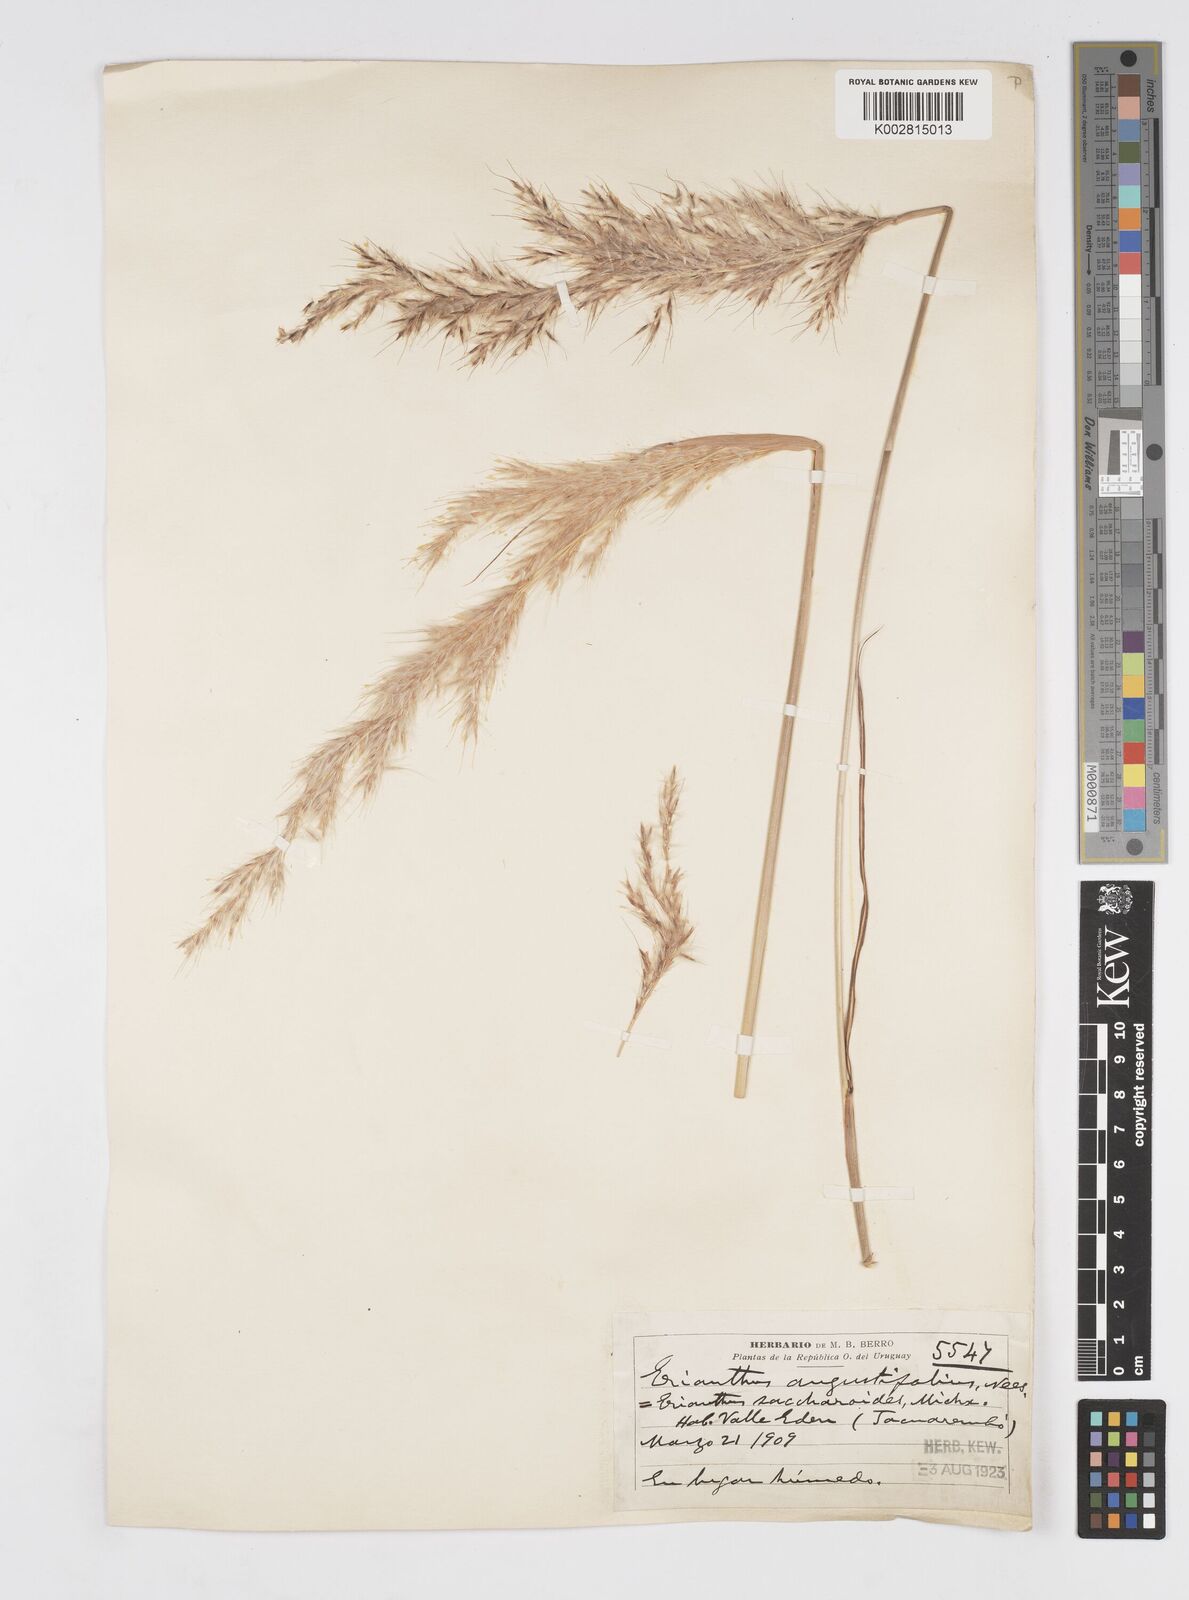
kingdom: Plantae
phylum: Tracheophyta
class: Liliopsida
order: Poales
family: Poaceae
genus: Saccharum
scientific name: Saccharum angustifolium
